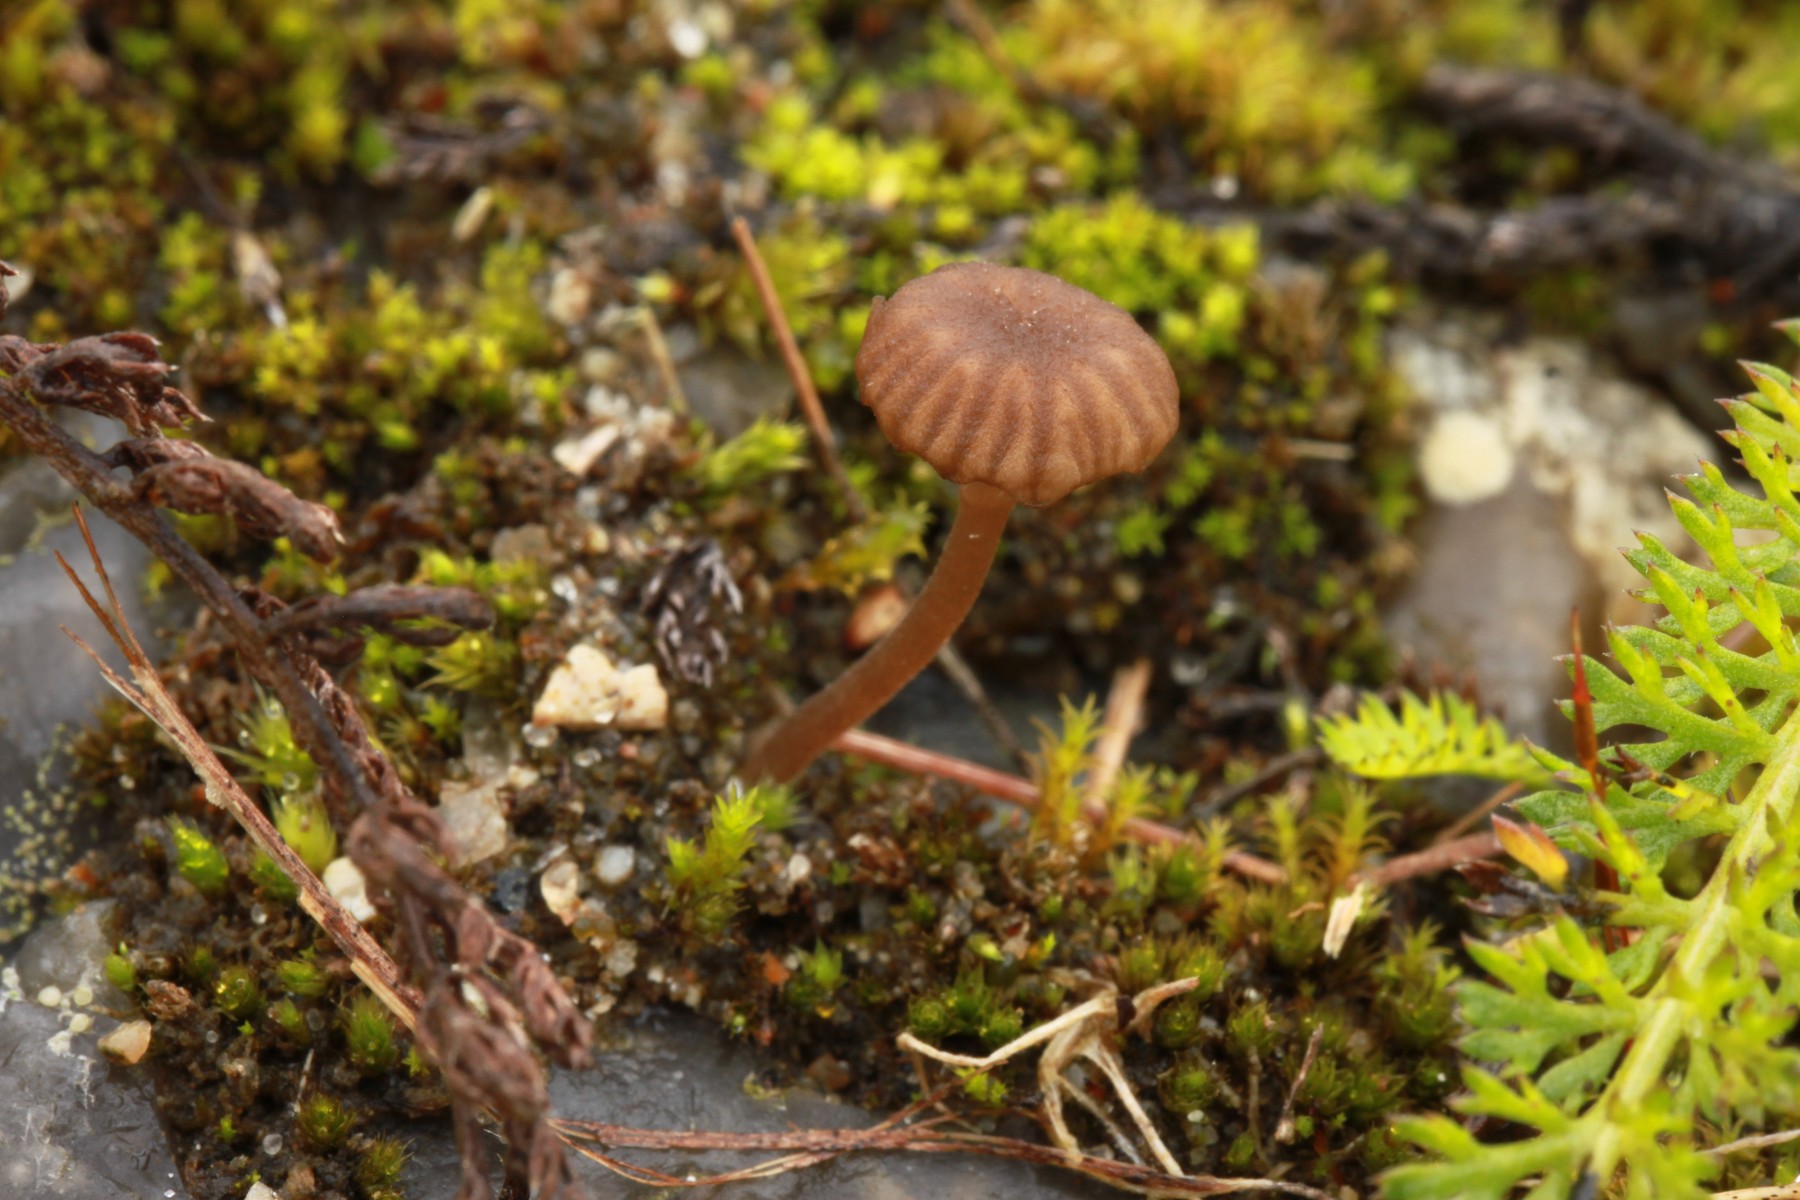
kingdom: Fungi
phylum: Basidiomycota
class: Agaricomycetes
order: Agaricales
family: Hygrophoraceae
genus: Arrhenia
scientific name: Arrhenia rustica
